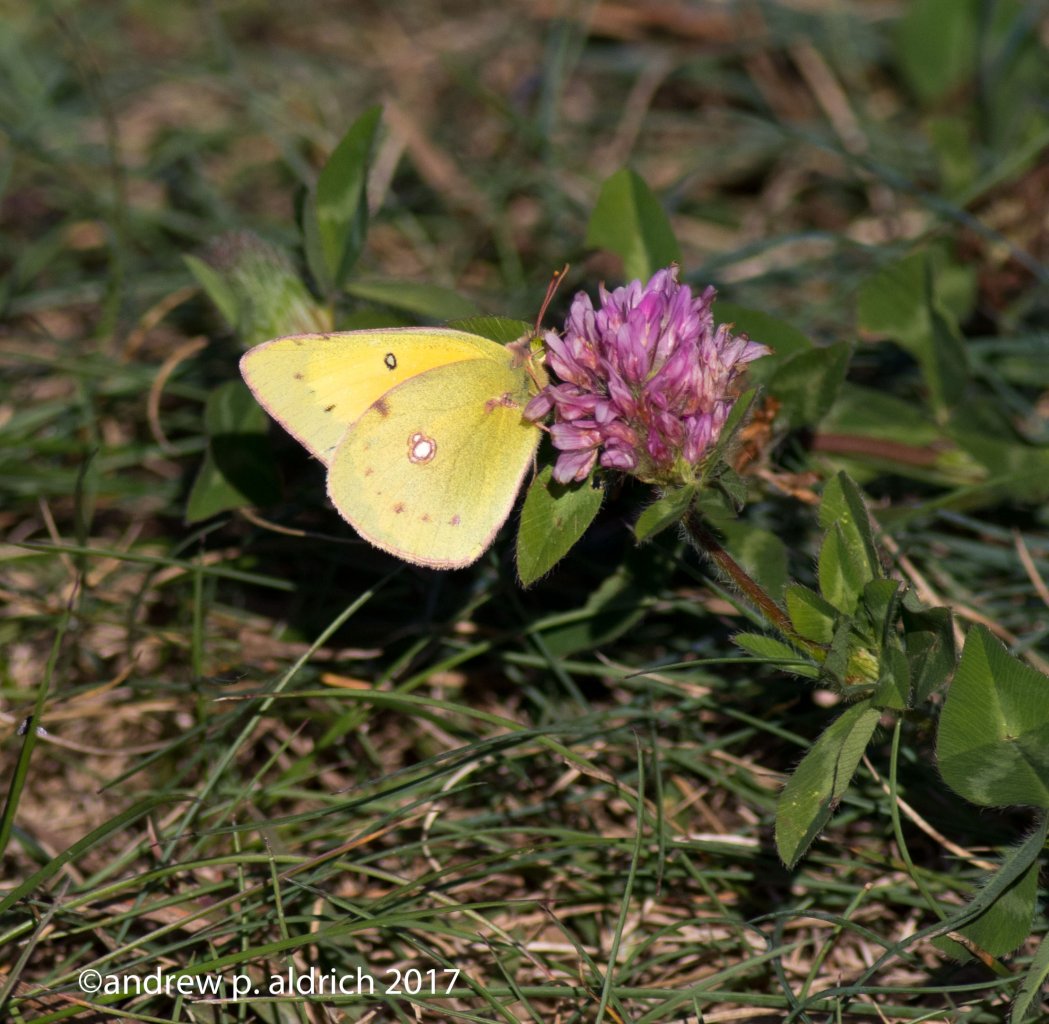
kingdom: Animalia
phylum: Arthropoda
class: Insecta
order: Lepidoptera
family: Pieridae
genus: Colias
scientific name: Colias eurytheme
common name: Orange Sulphur
